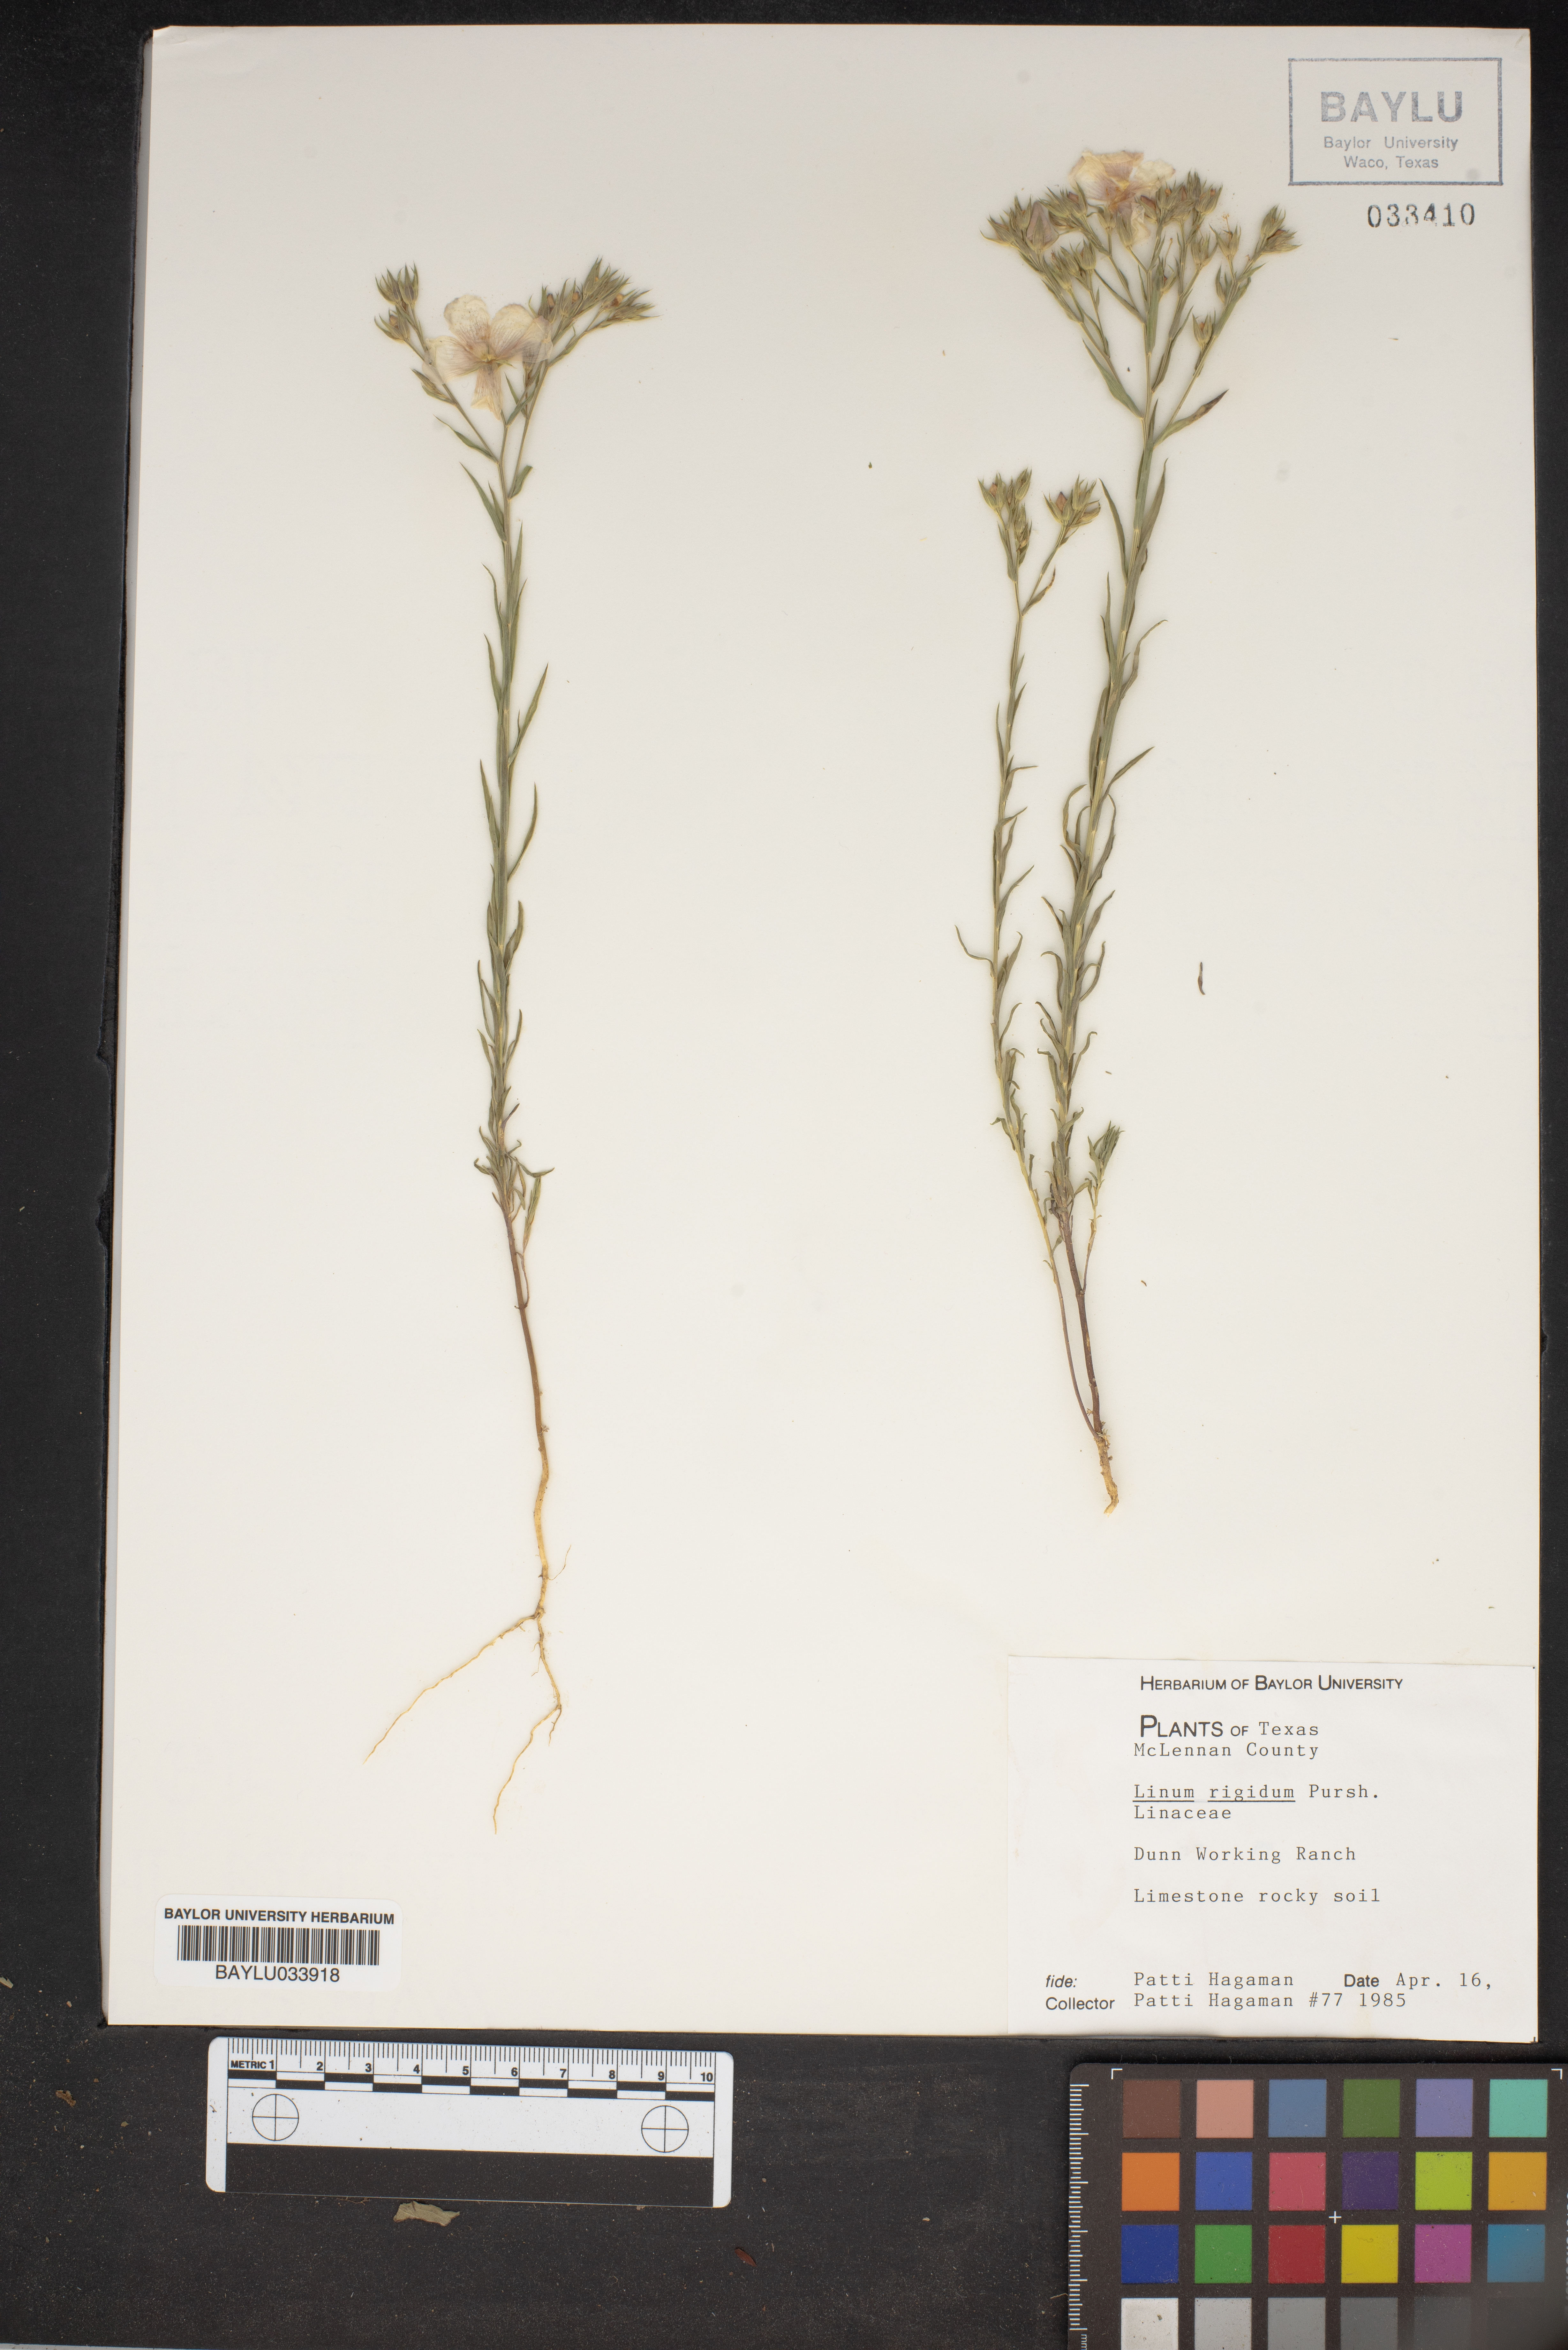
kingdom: Plantae
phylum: Tracheophyta
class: Magnoliopsida
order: Malpighiales
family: Linaceae
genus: Linum
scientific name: Linum rigidum
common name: Stiff-stem flax
